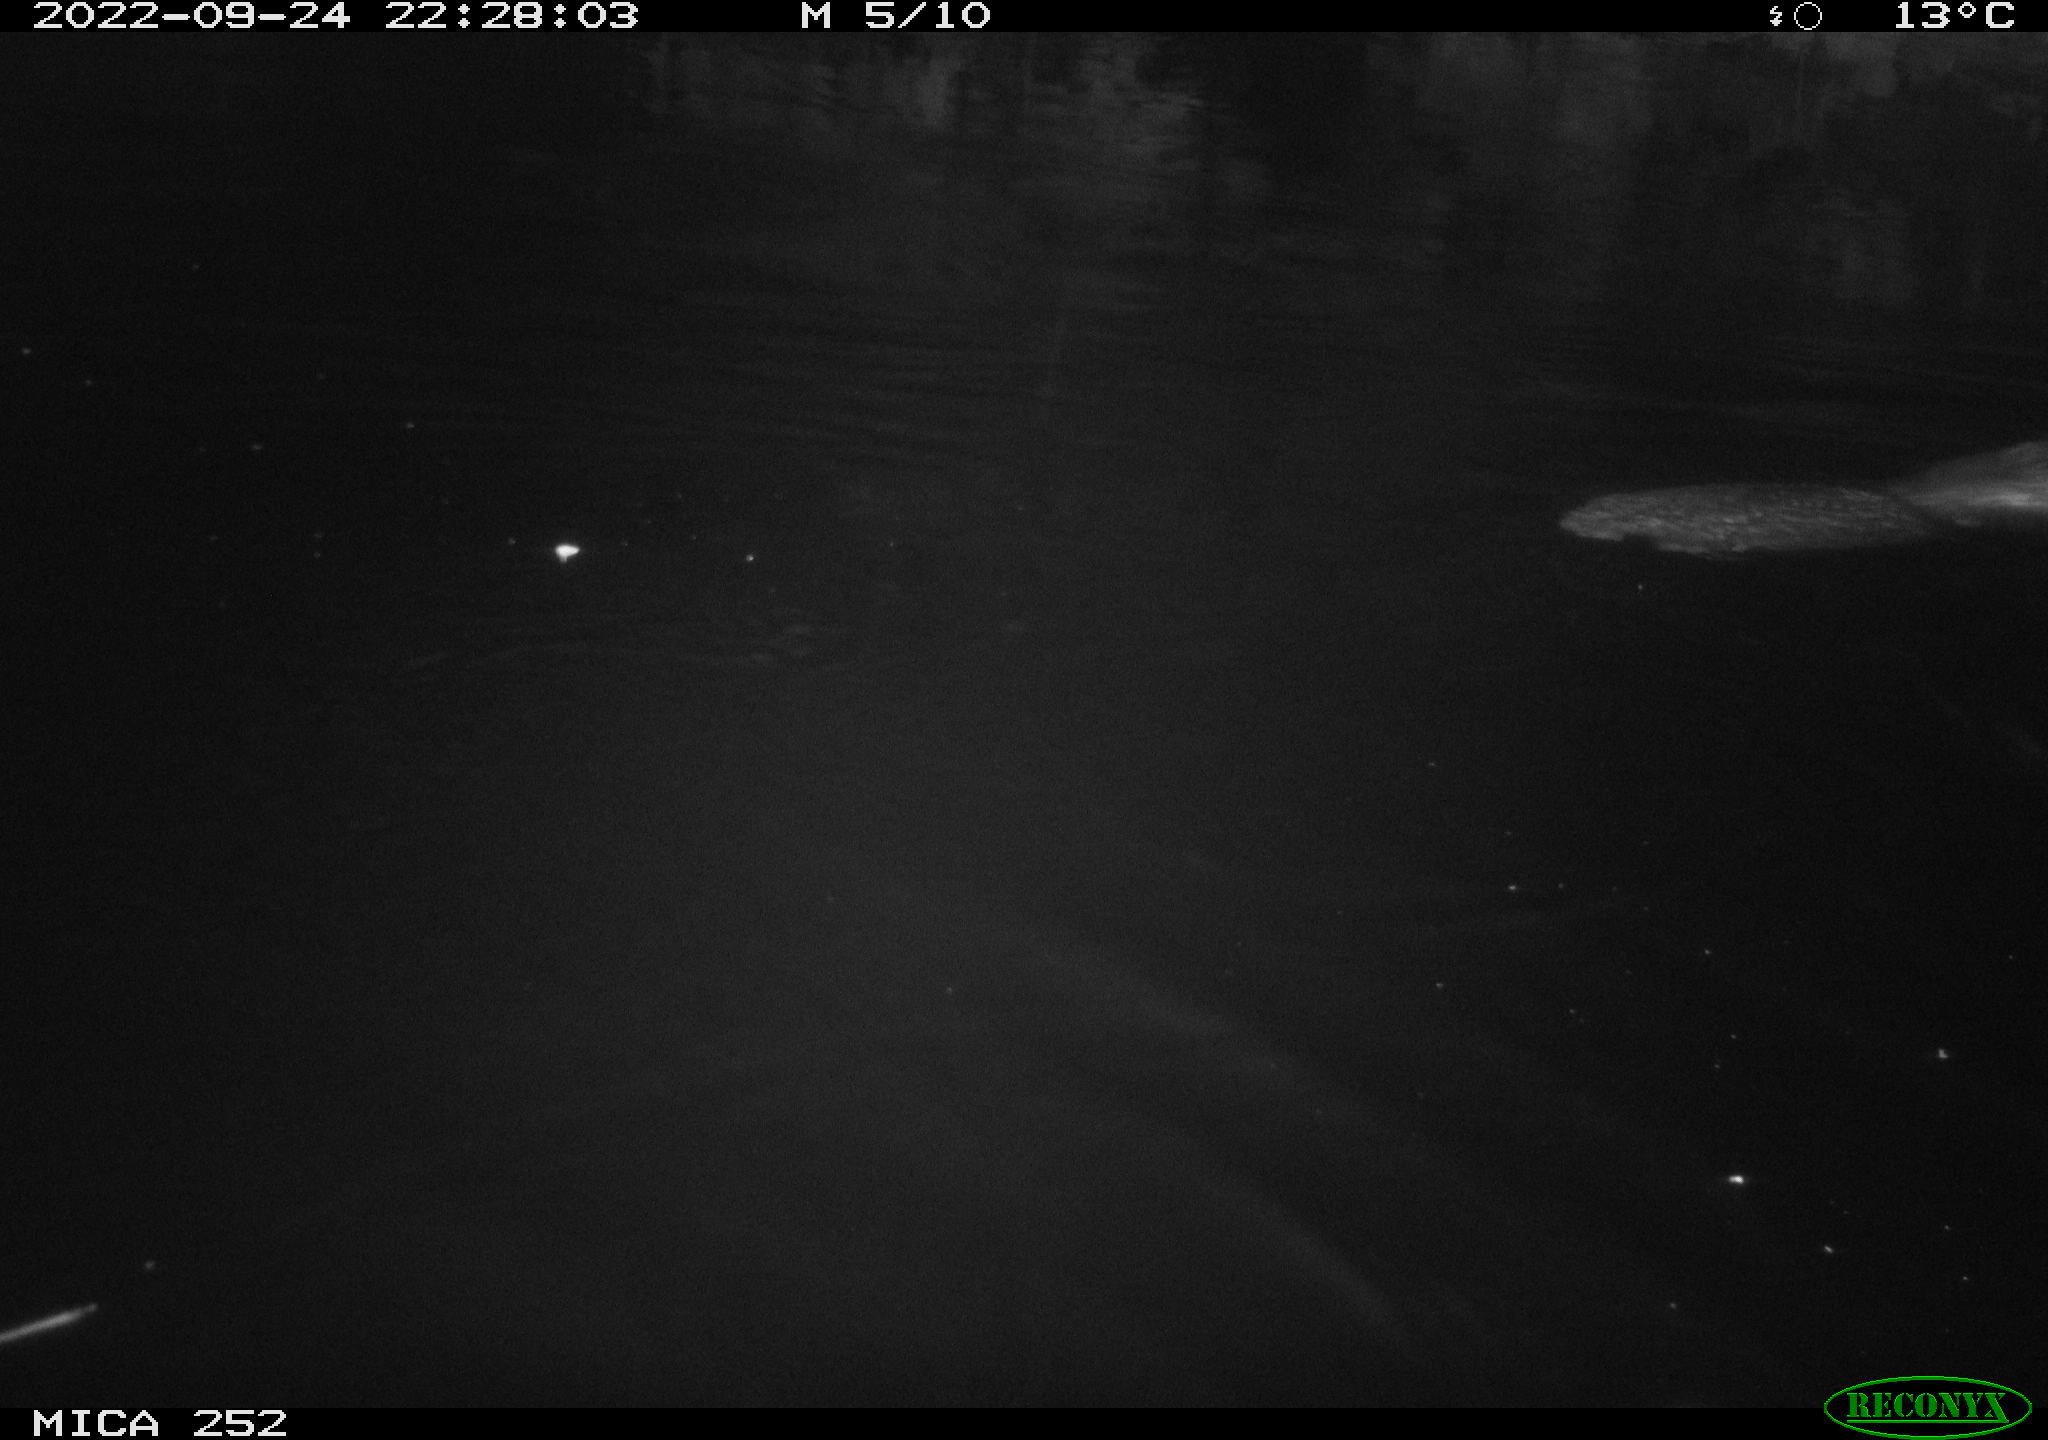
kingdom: Animalia
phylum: Chordata
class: Mammalia
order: Rodentia
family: Castoridae
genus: Castor
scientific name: Castor fiber
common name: Eurasian beaver
